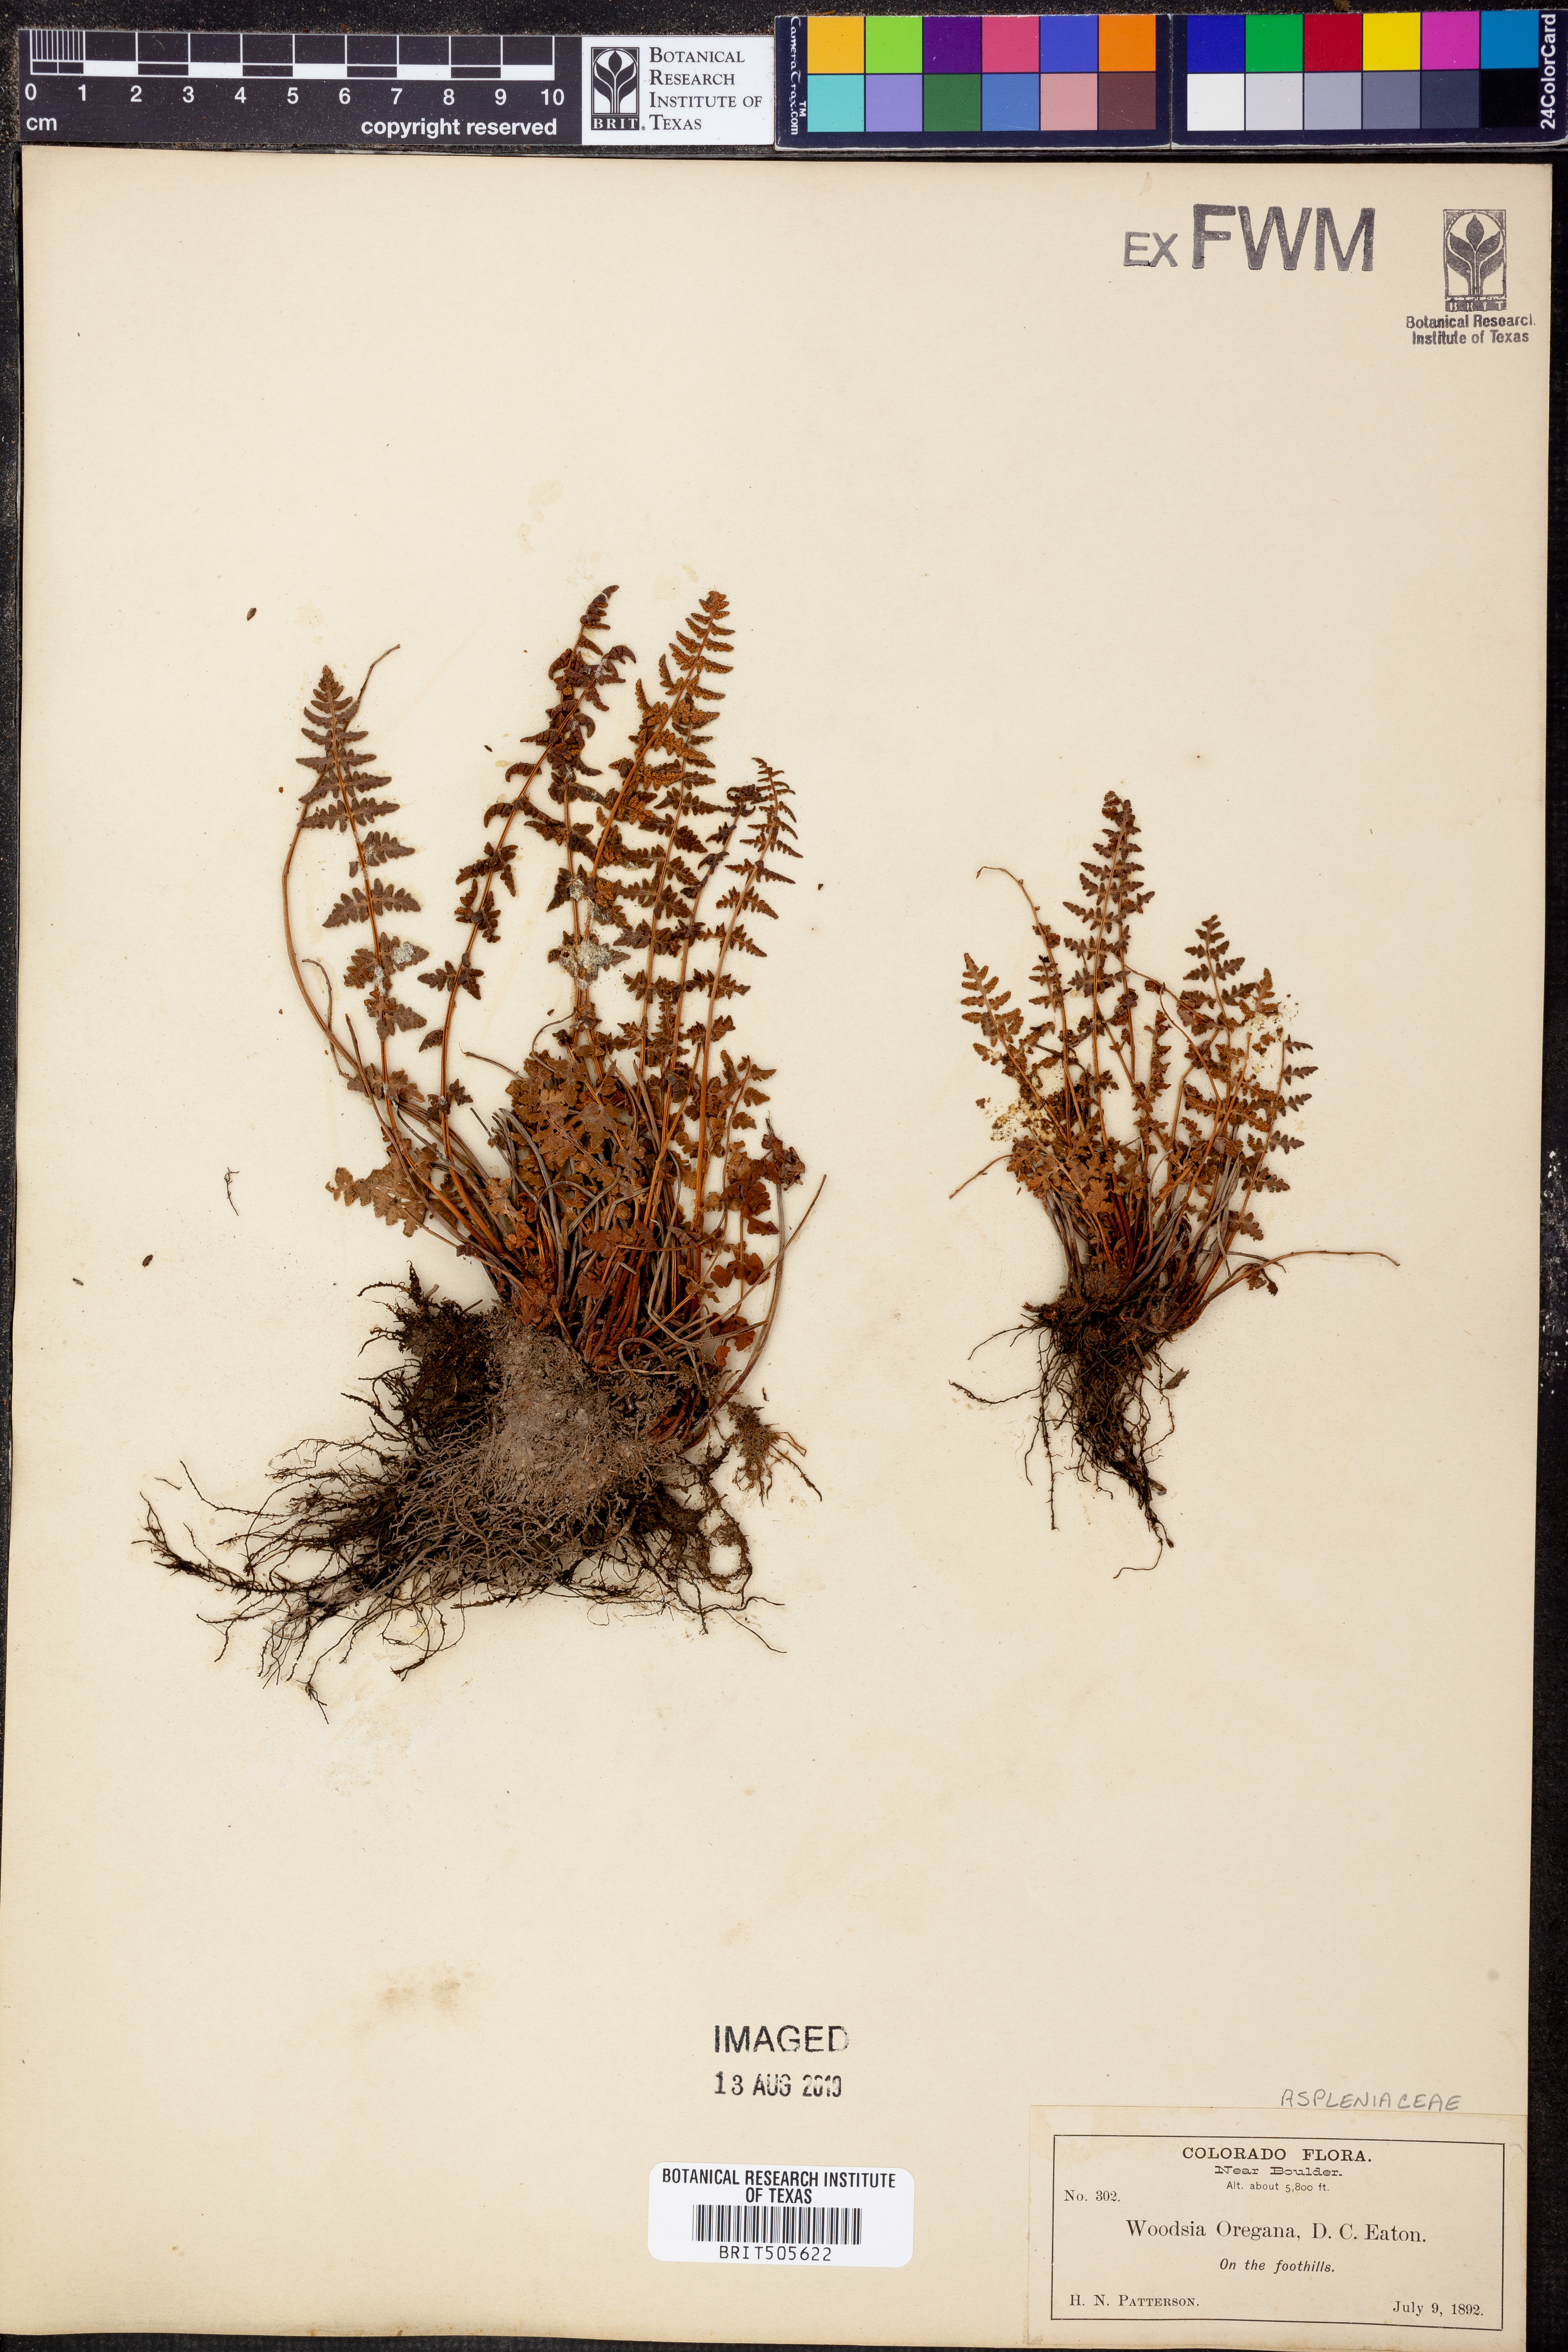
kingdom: Plantae
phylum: Tracheophyta
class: Polypodiopsida
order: Polypodiales
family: Woodsiaceae
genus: Physematium
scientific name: Physematium oreganum
